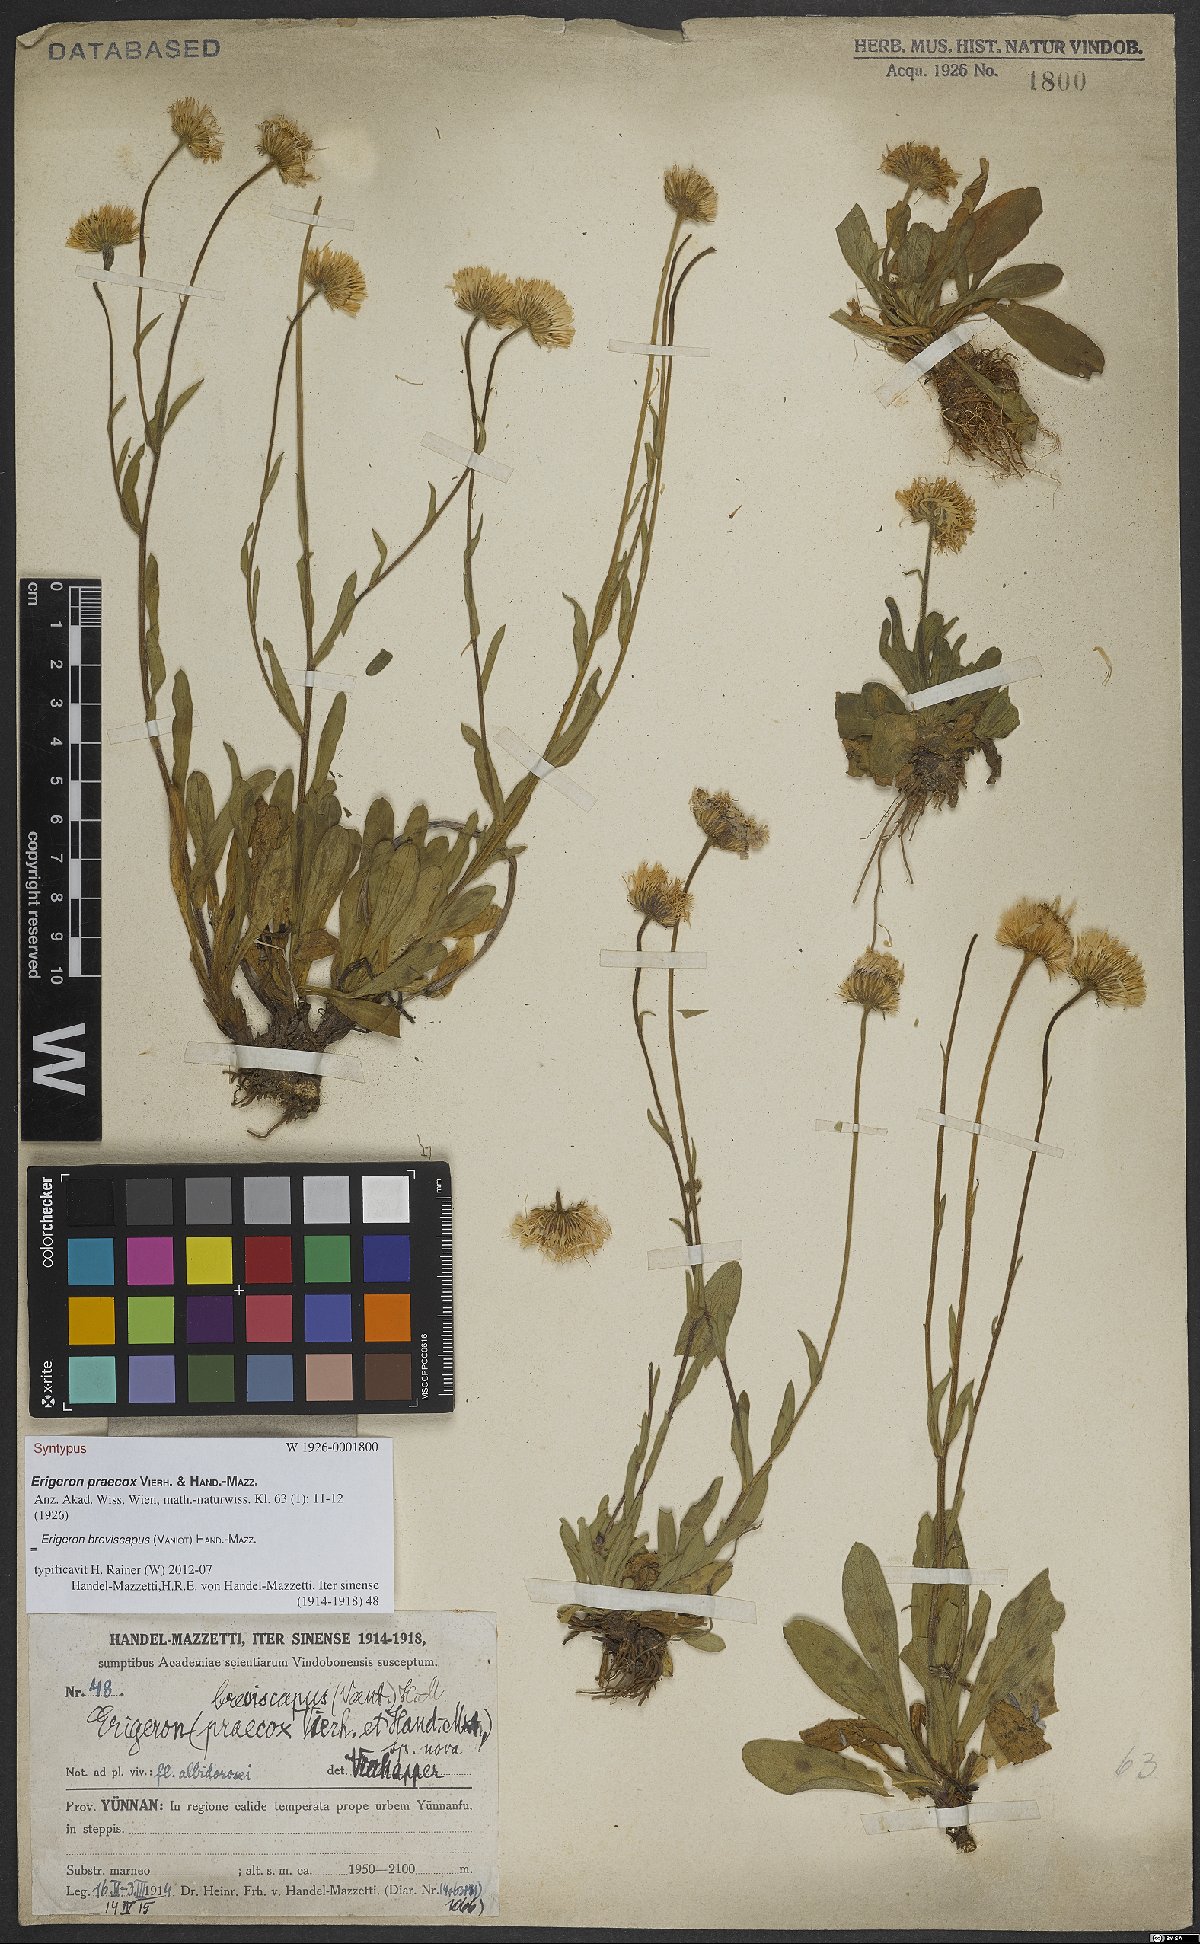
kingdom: Plantae
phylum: Tracheophyta
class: Magnoliopsida
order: Asterales
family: Asteraceae
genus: Erigeron
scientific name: Erigeron breviscapus
